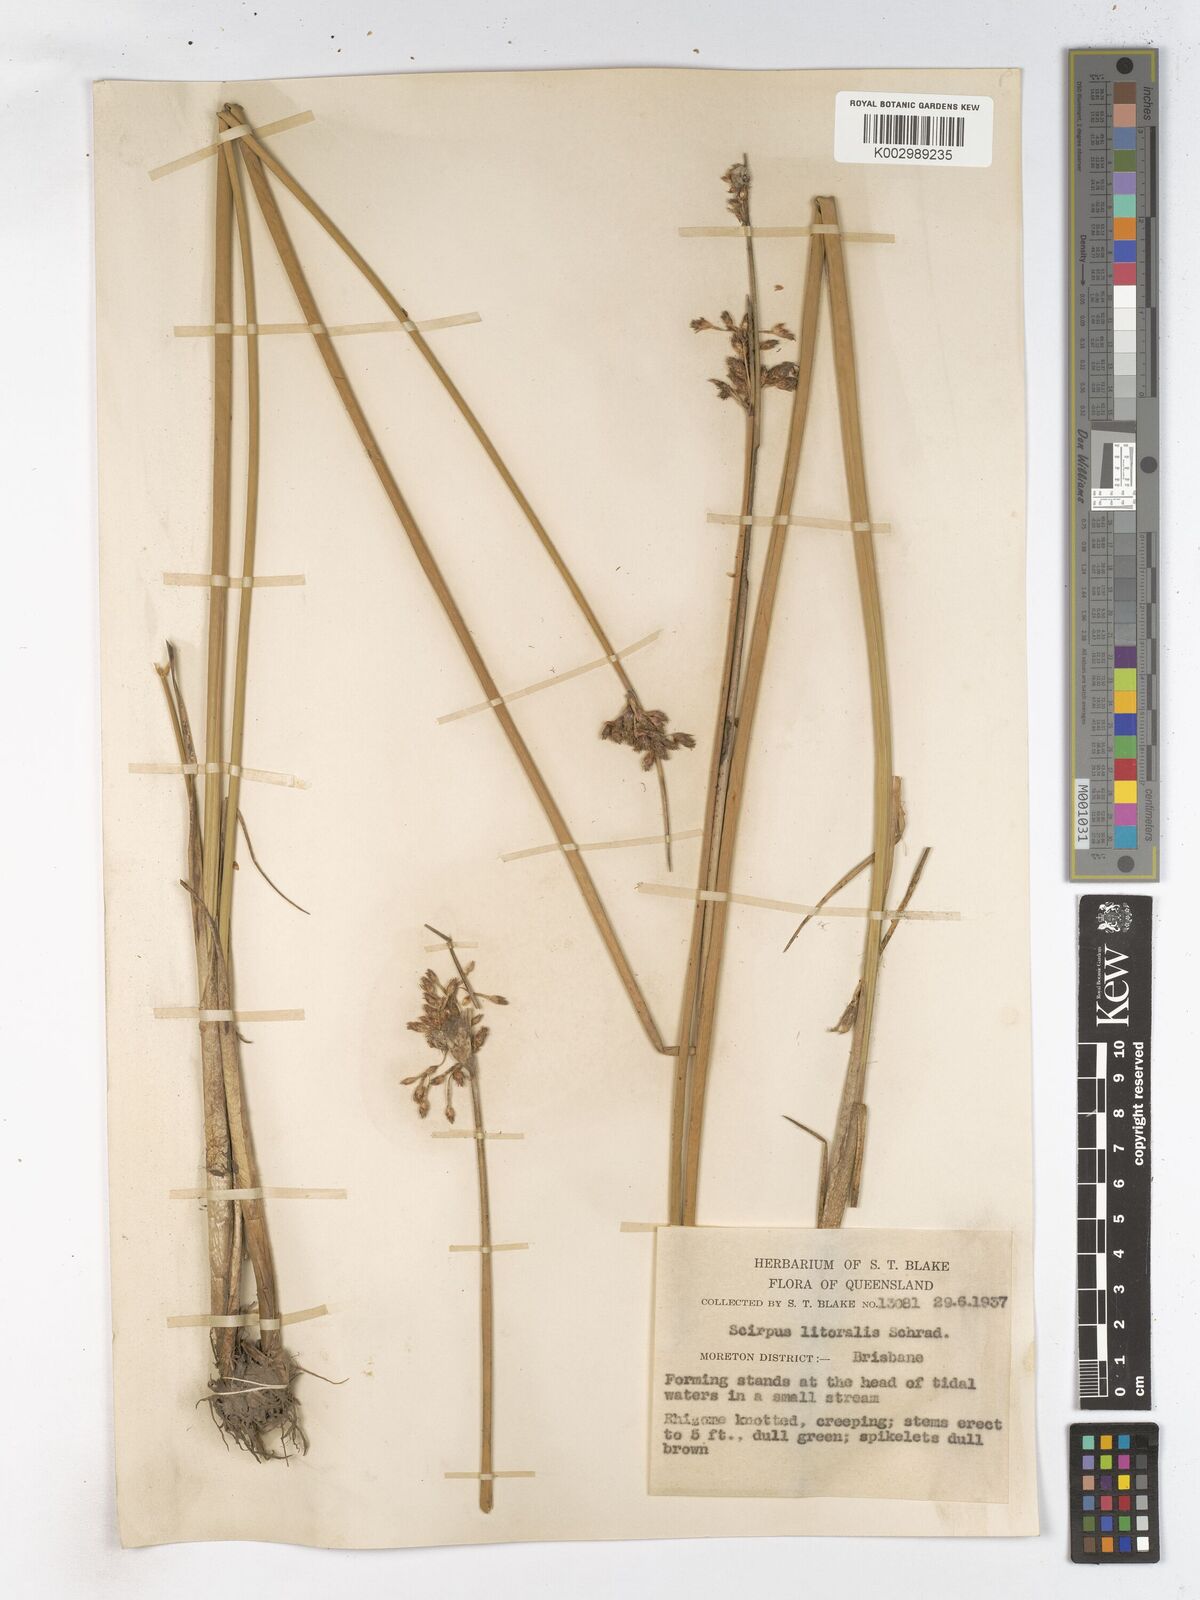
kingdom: Plantae
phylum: Tracheophyta
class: Liliopsida
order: Poales
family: Cyperaceae
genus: Schoenoplectus
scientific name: Schoenoplectus litoralis
